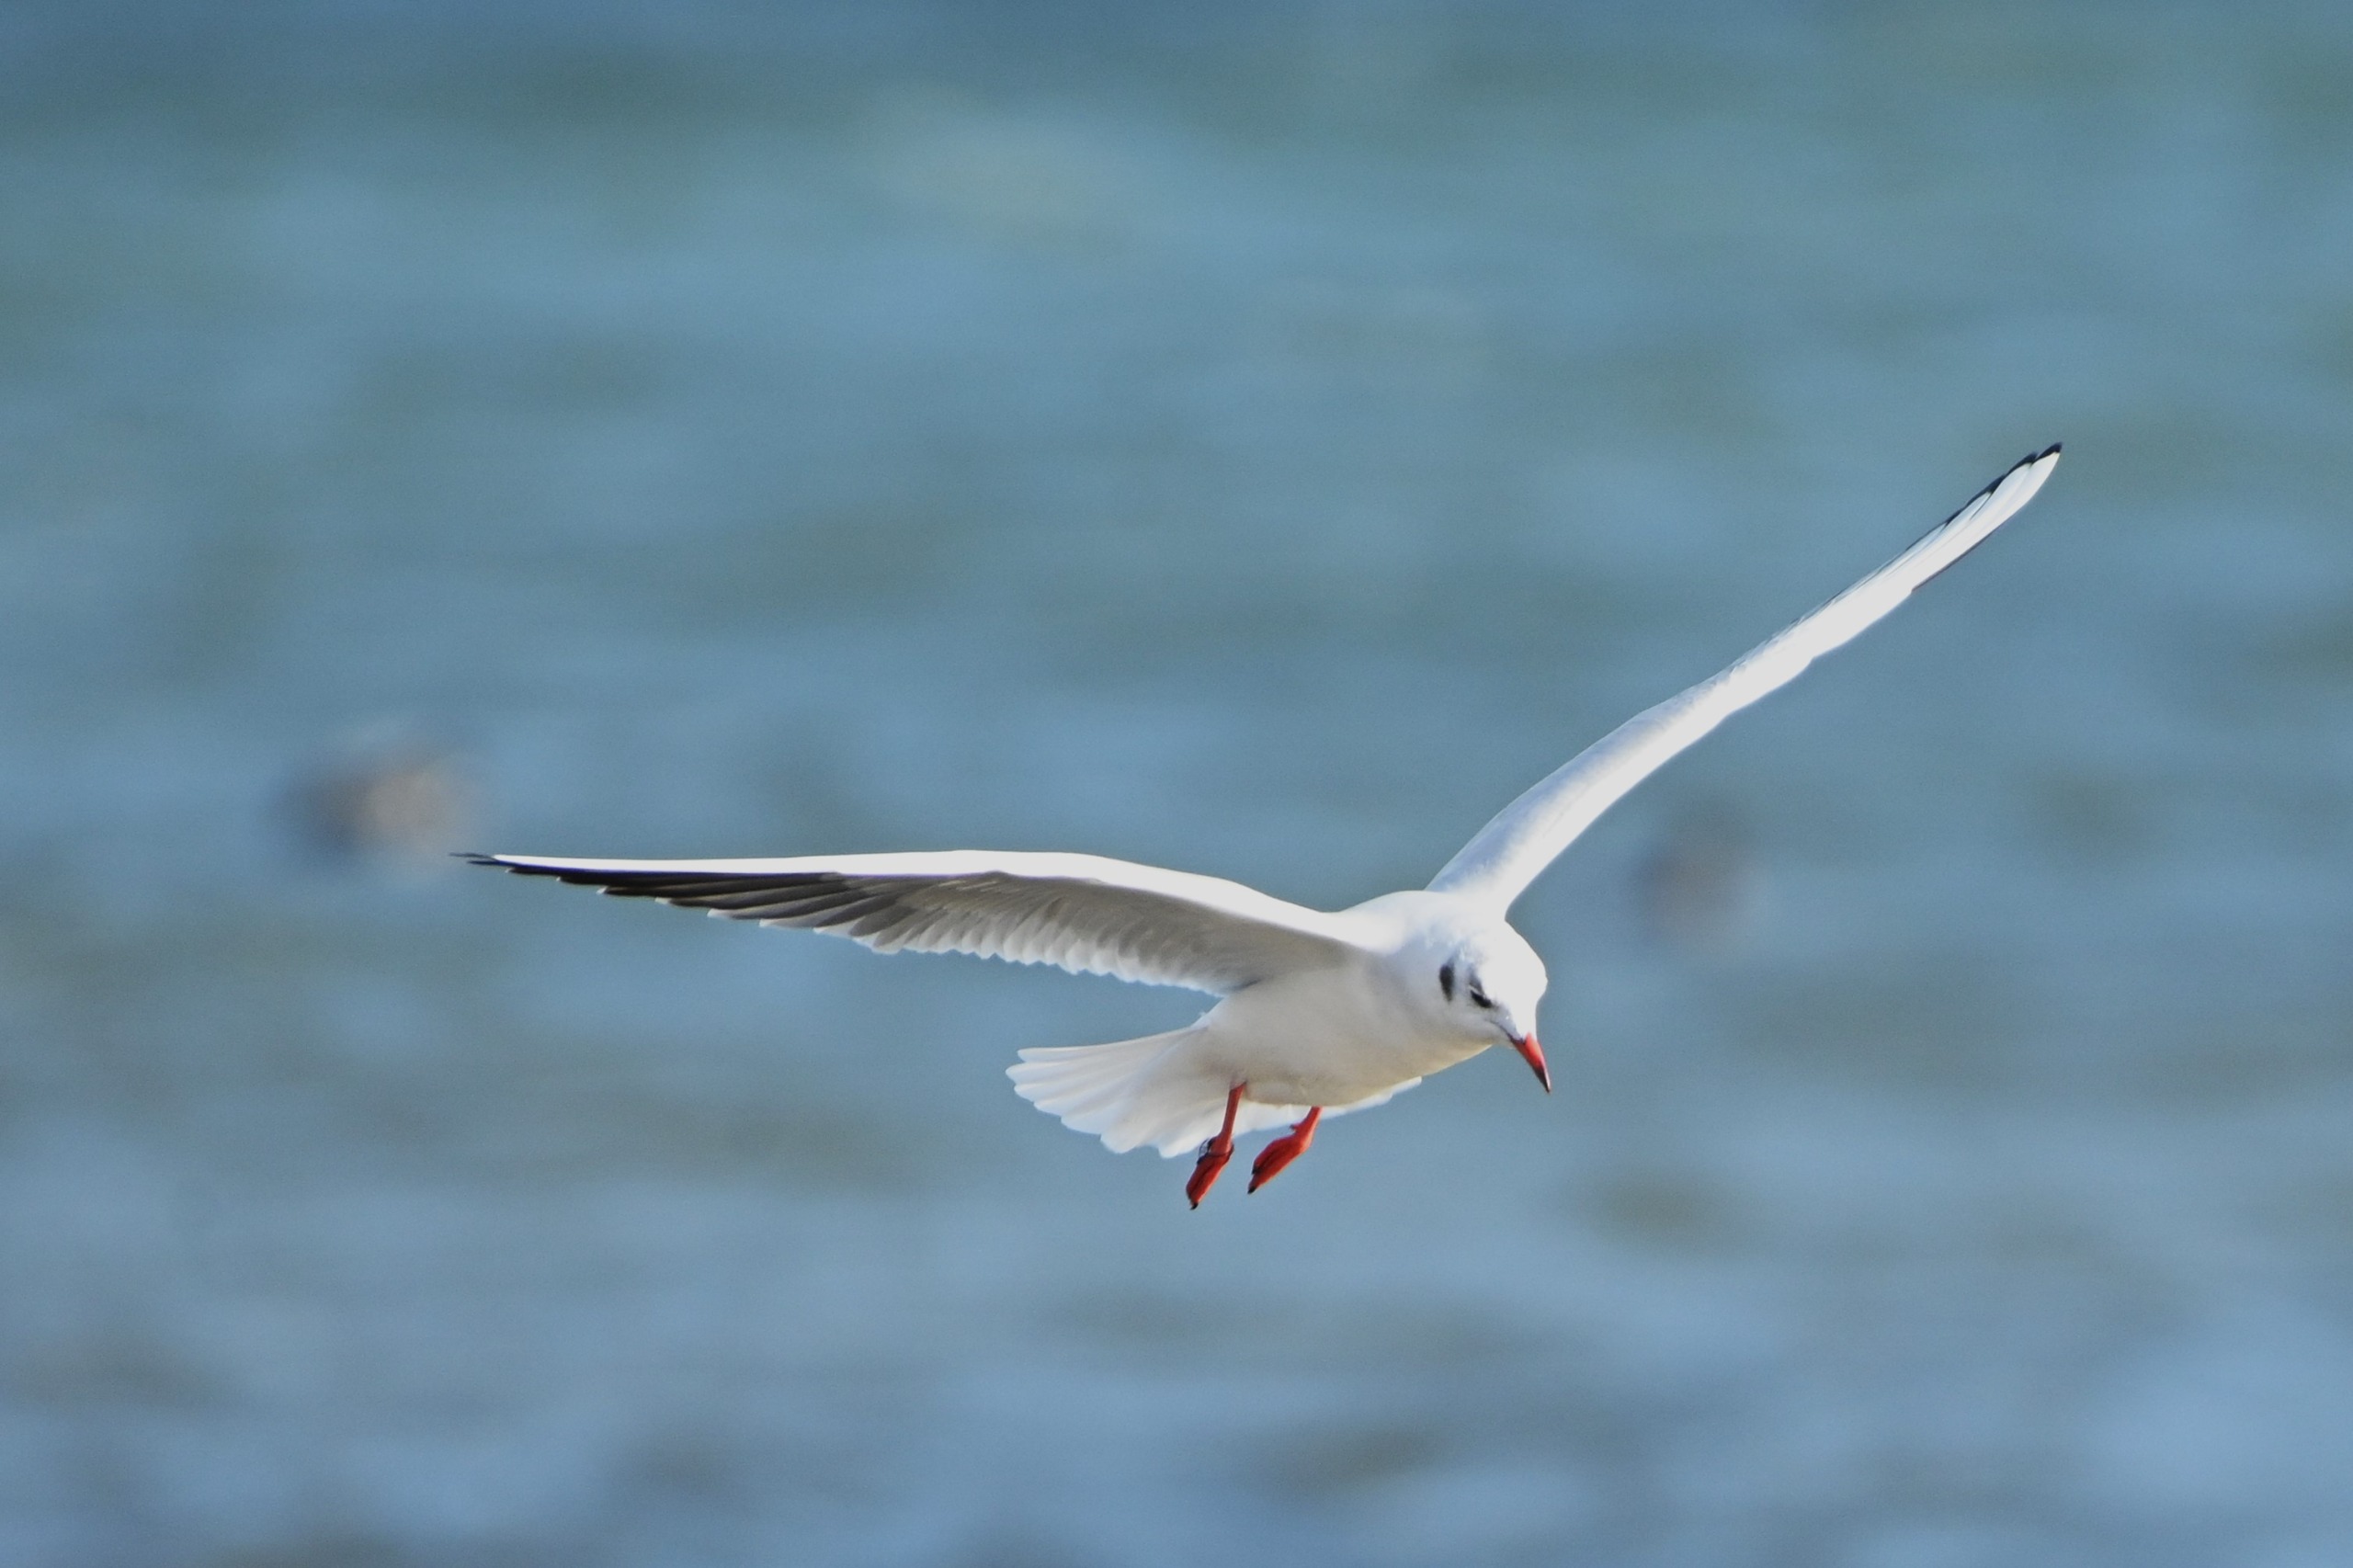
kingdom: Animalia
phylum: Chordata
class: Aves
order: Charadriiformes
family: Laridae
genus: Chroicocephalus
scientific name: Chroicocephalus ridibundus
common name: Hættemåge
